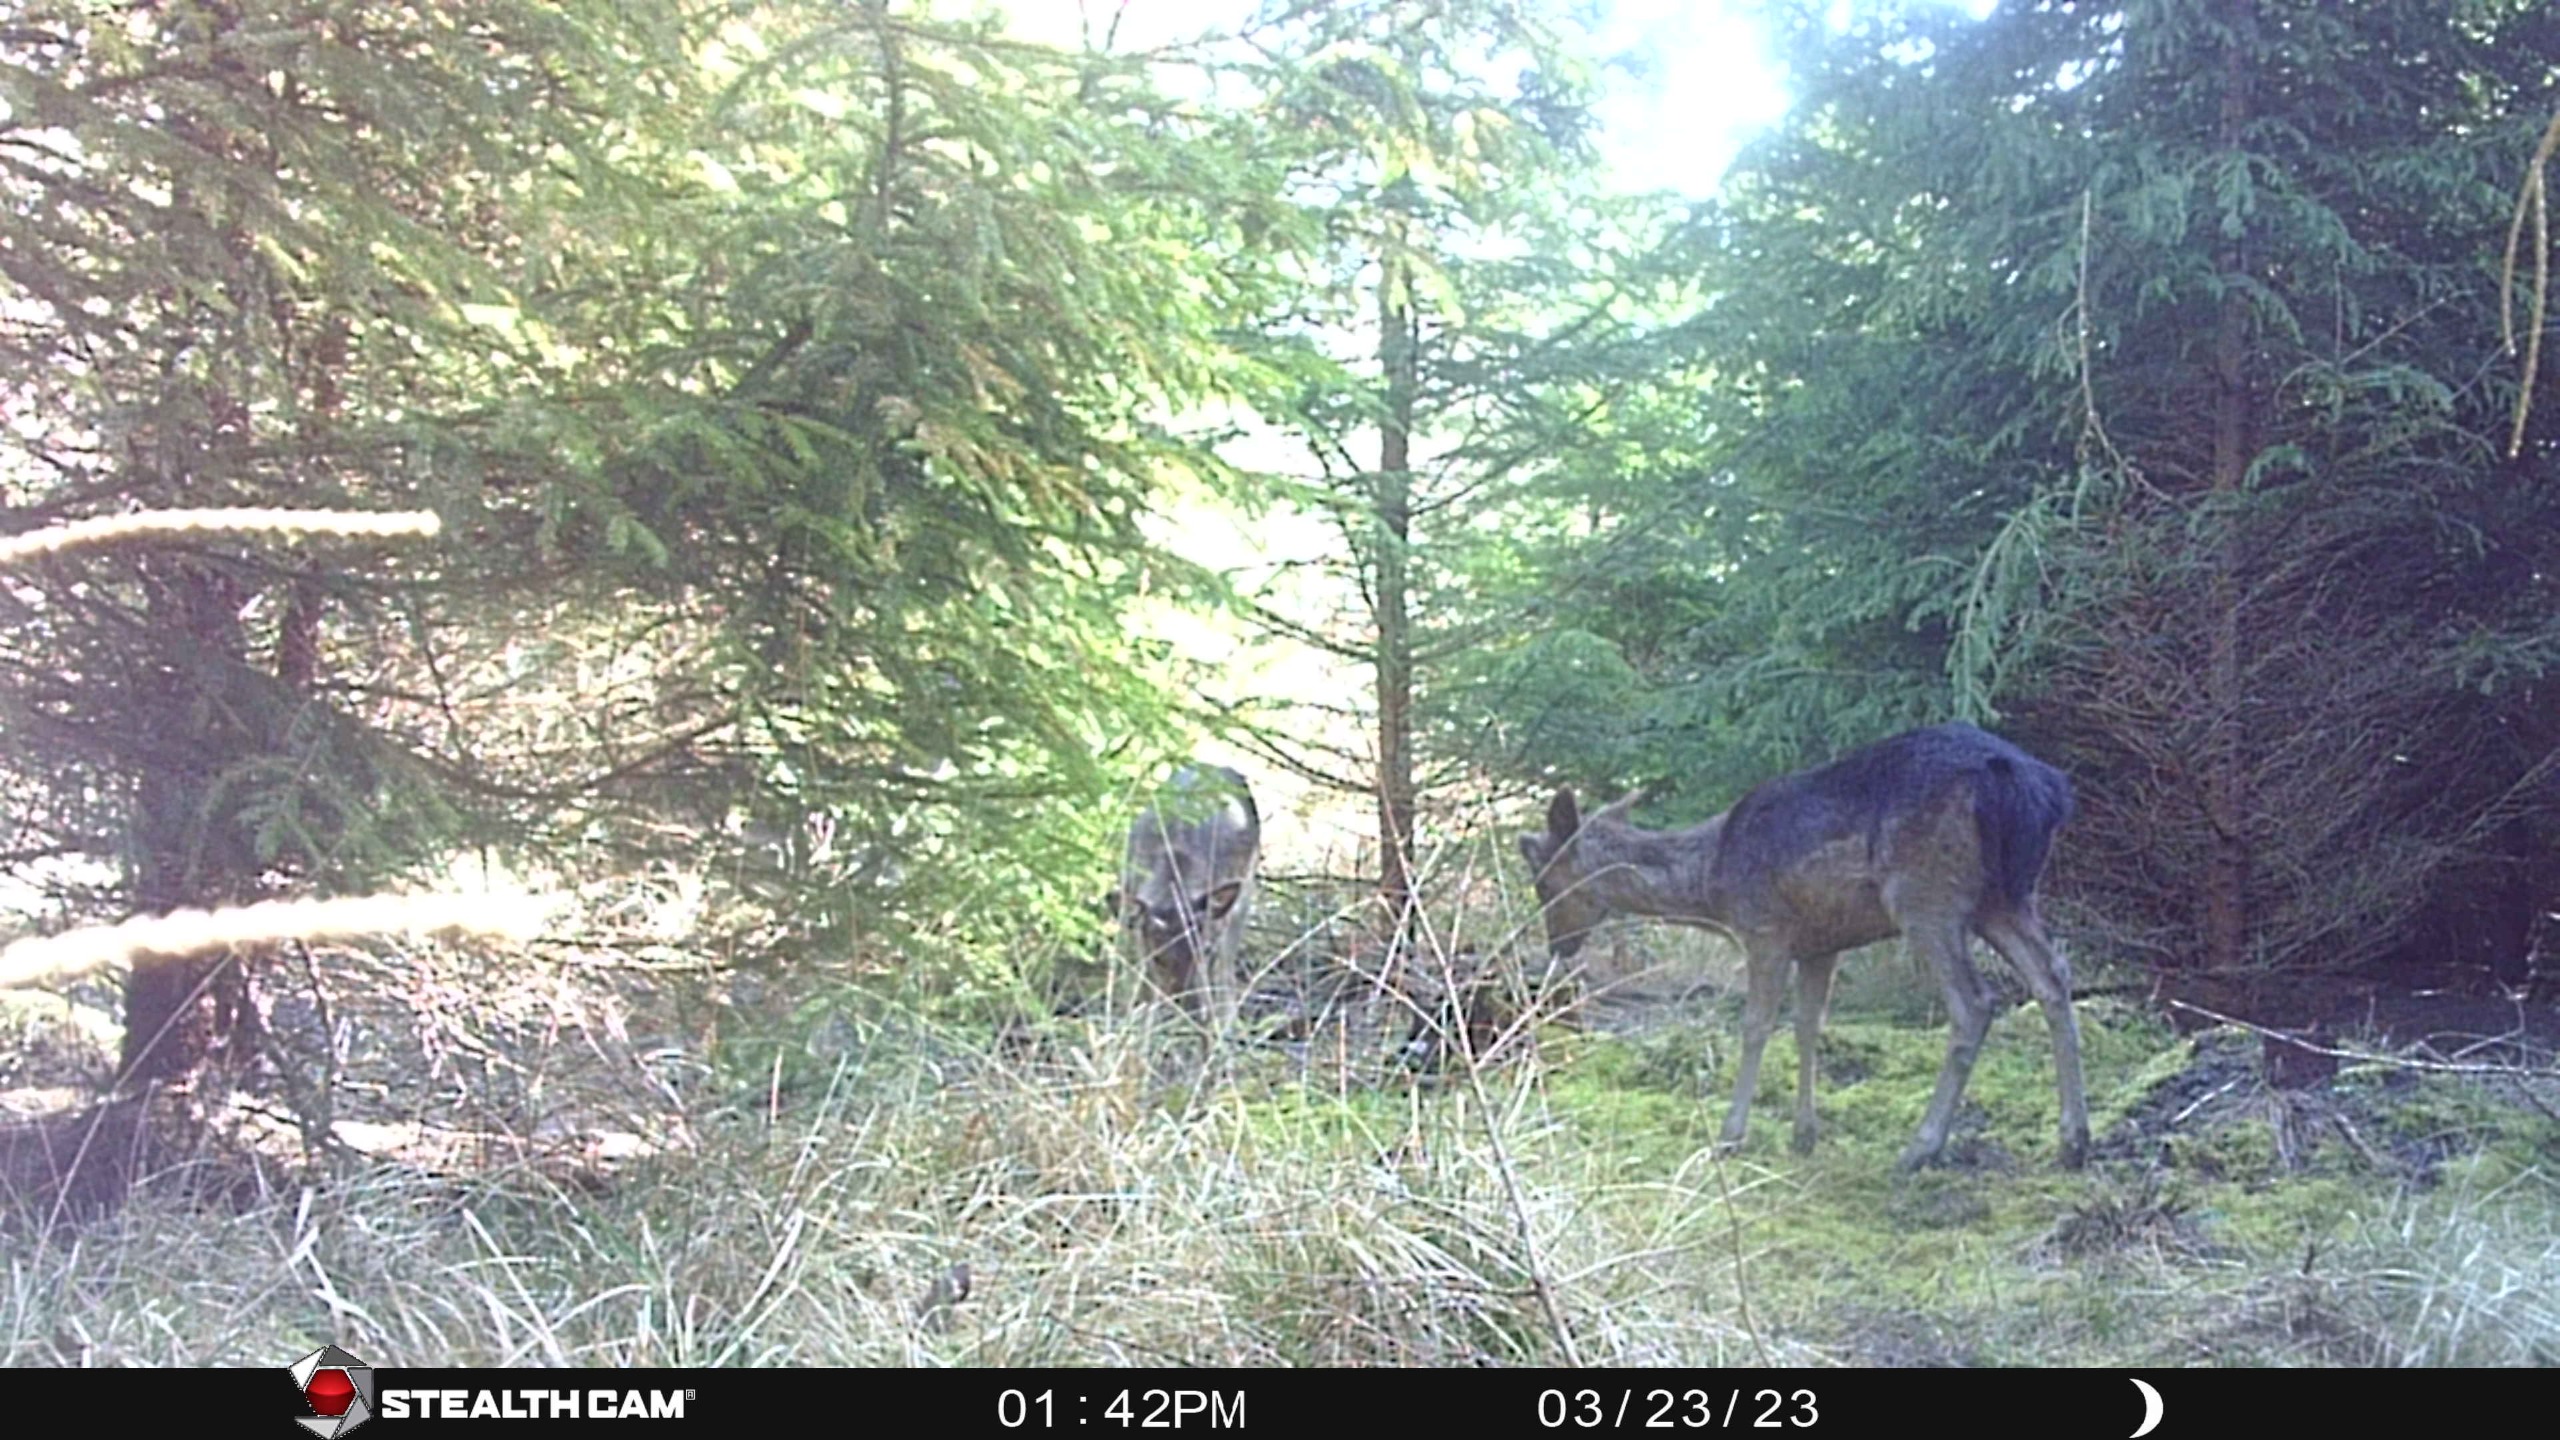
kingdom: Animalia
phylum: Chordata
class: Mammalia
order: Artiodactyla
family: Cervidae
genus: Dama
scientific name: Dama dama
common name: Dådyr
